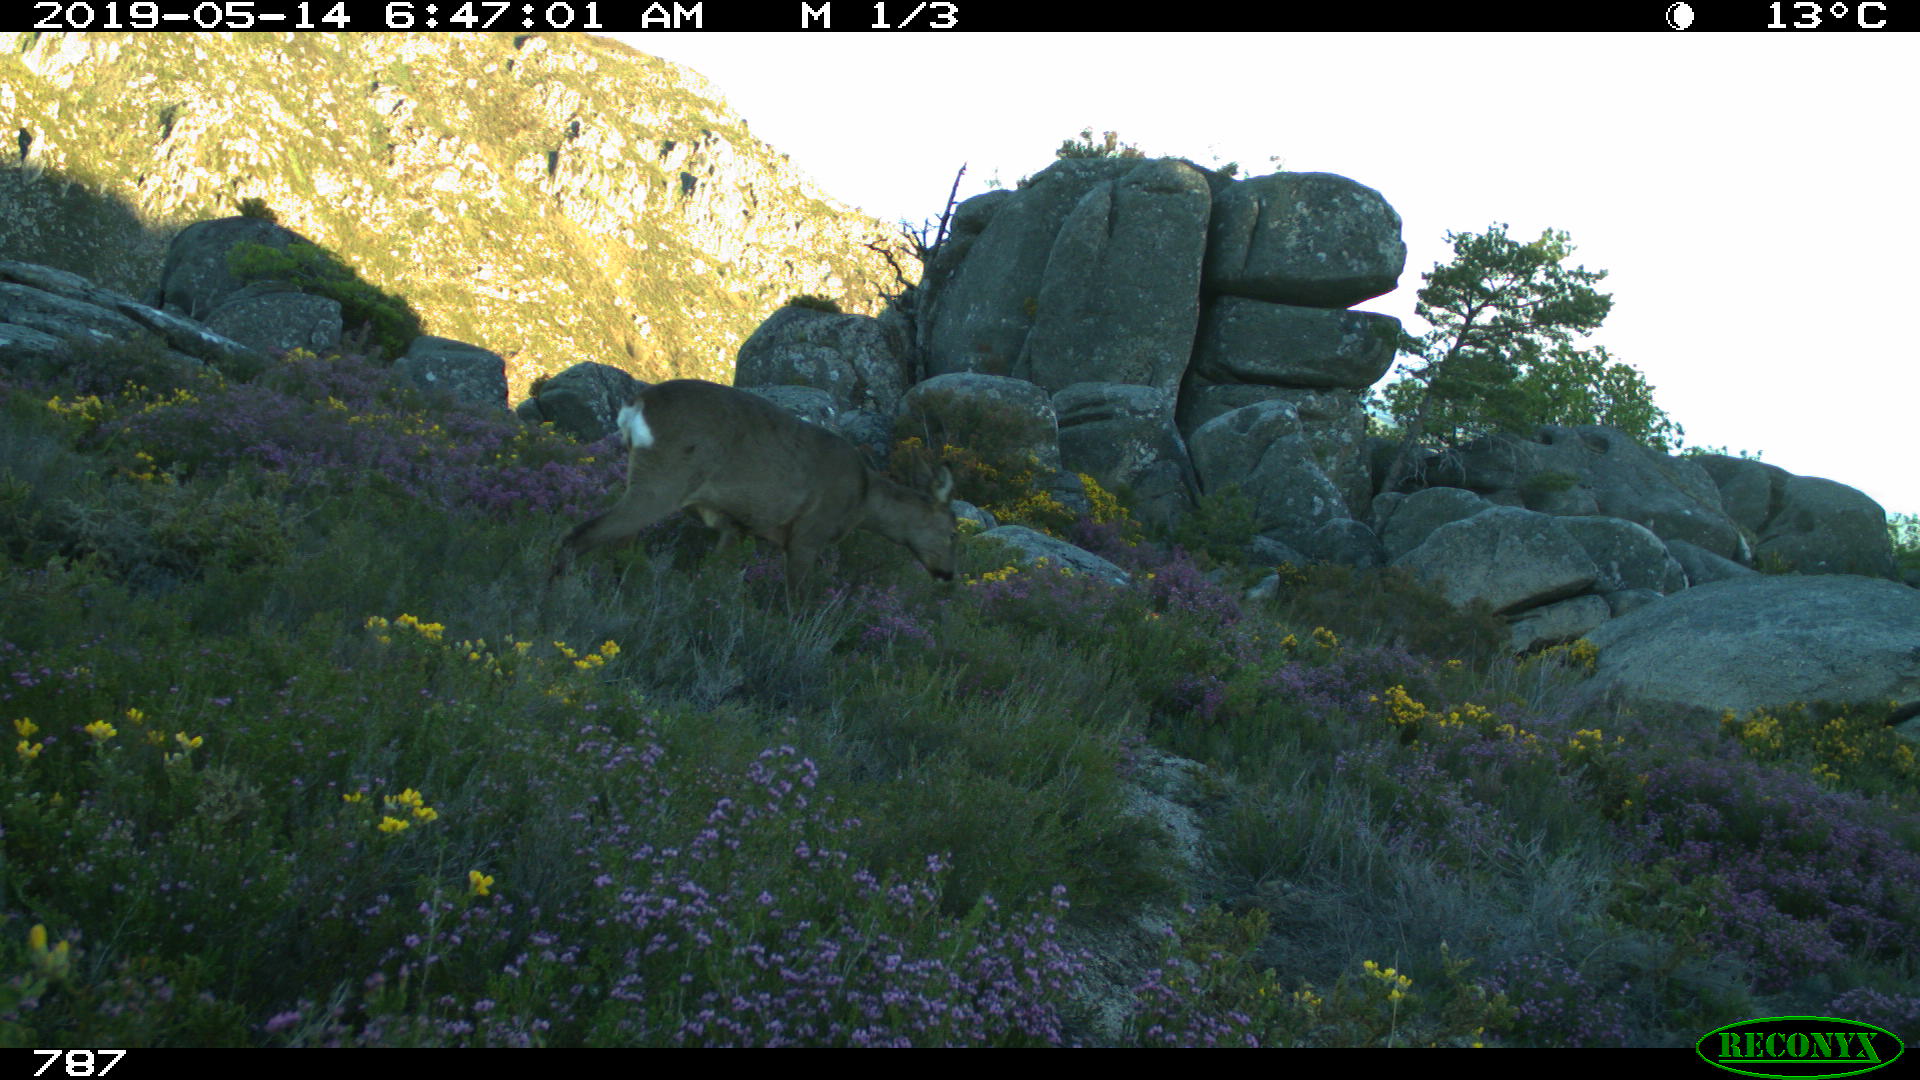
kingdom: Animalia
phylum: Chordata
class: Mammalia
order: Artiodactyla
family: Cervidae
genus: Capreolus
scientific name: Capreolus capreolus
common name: Western roe deer
